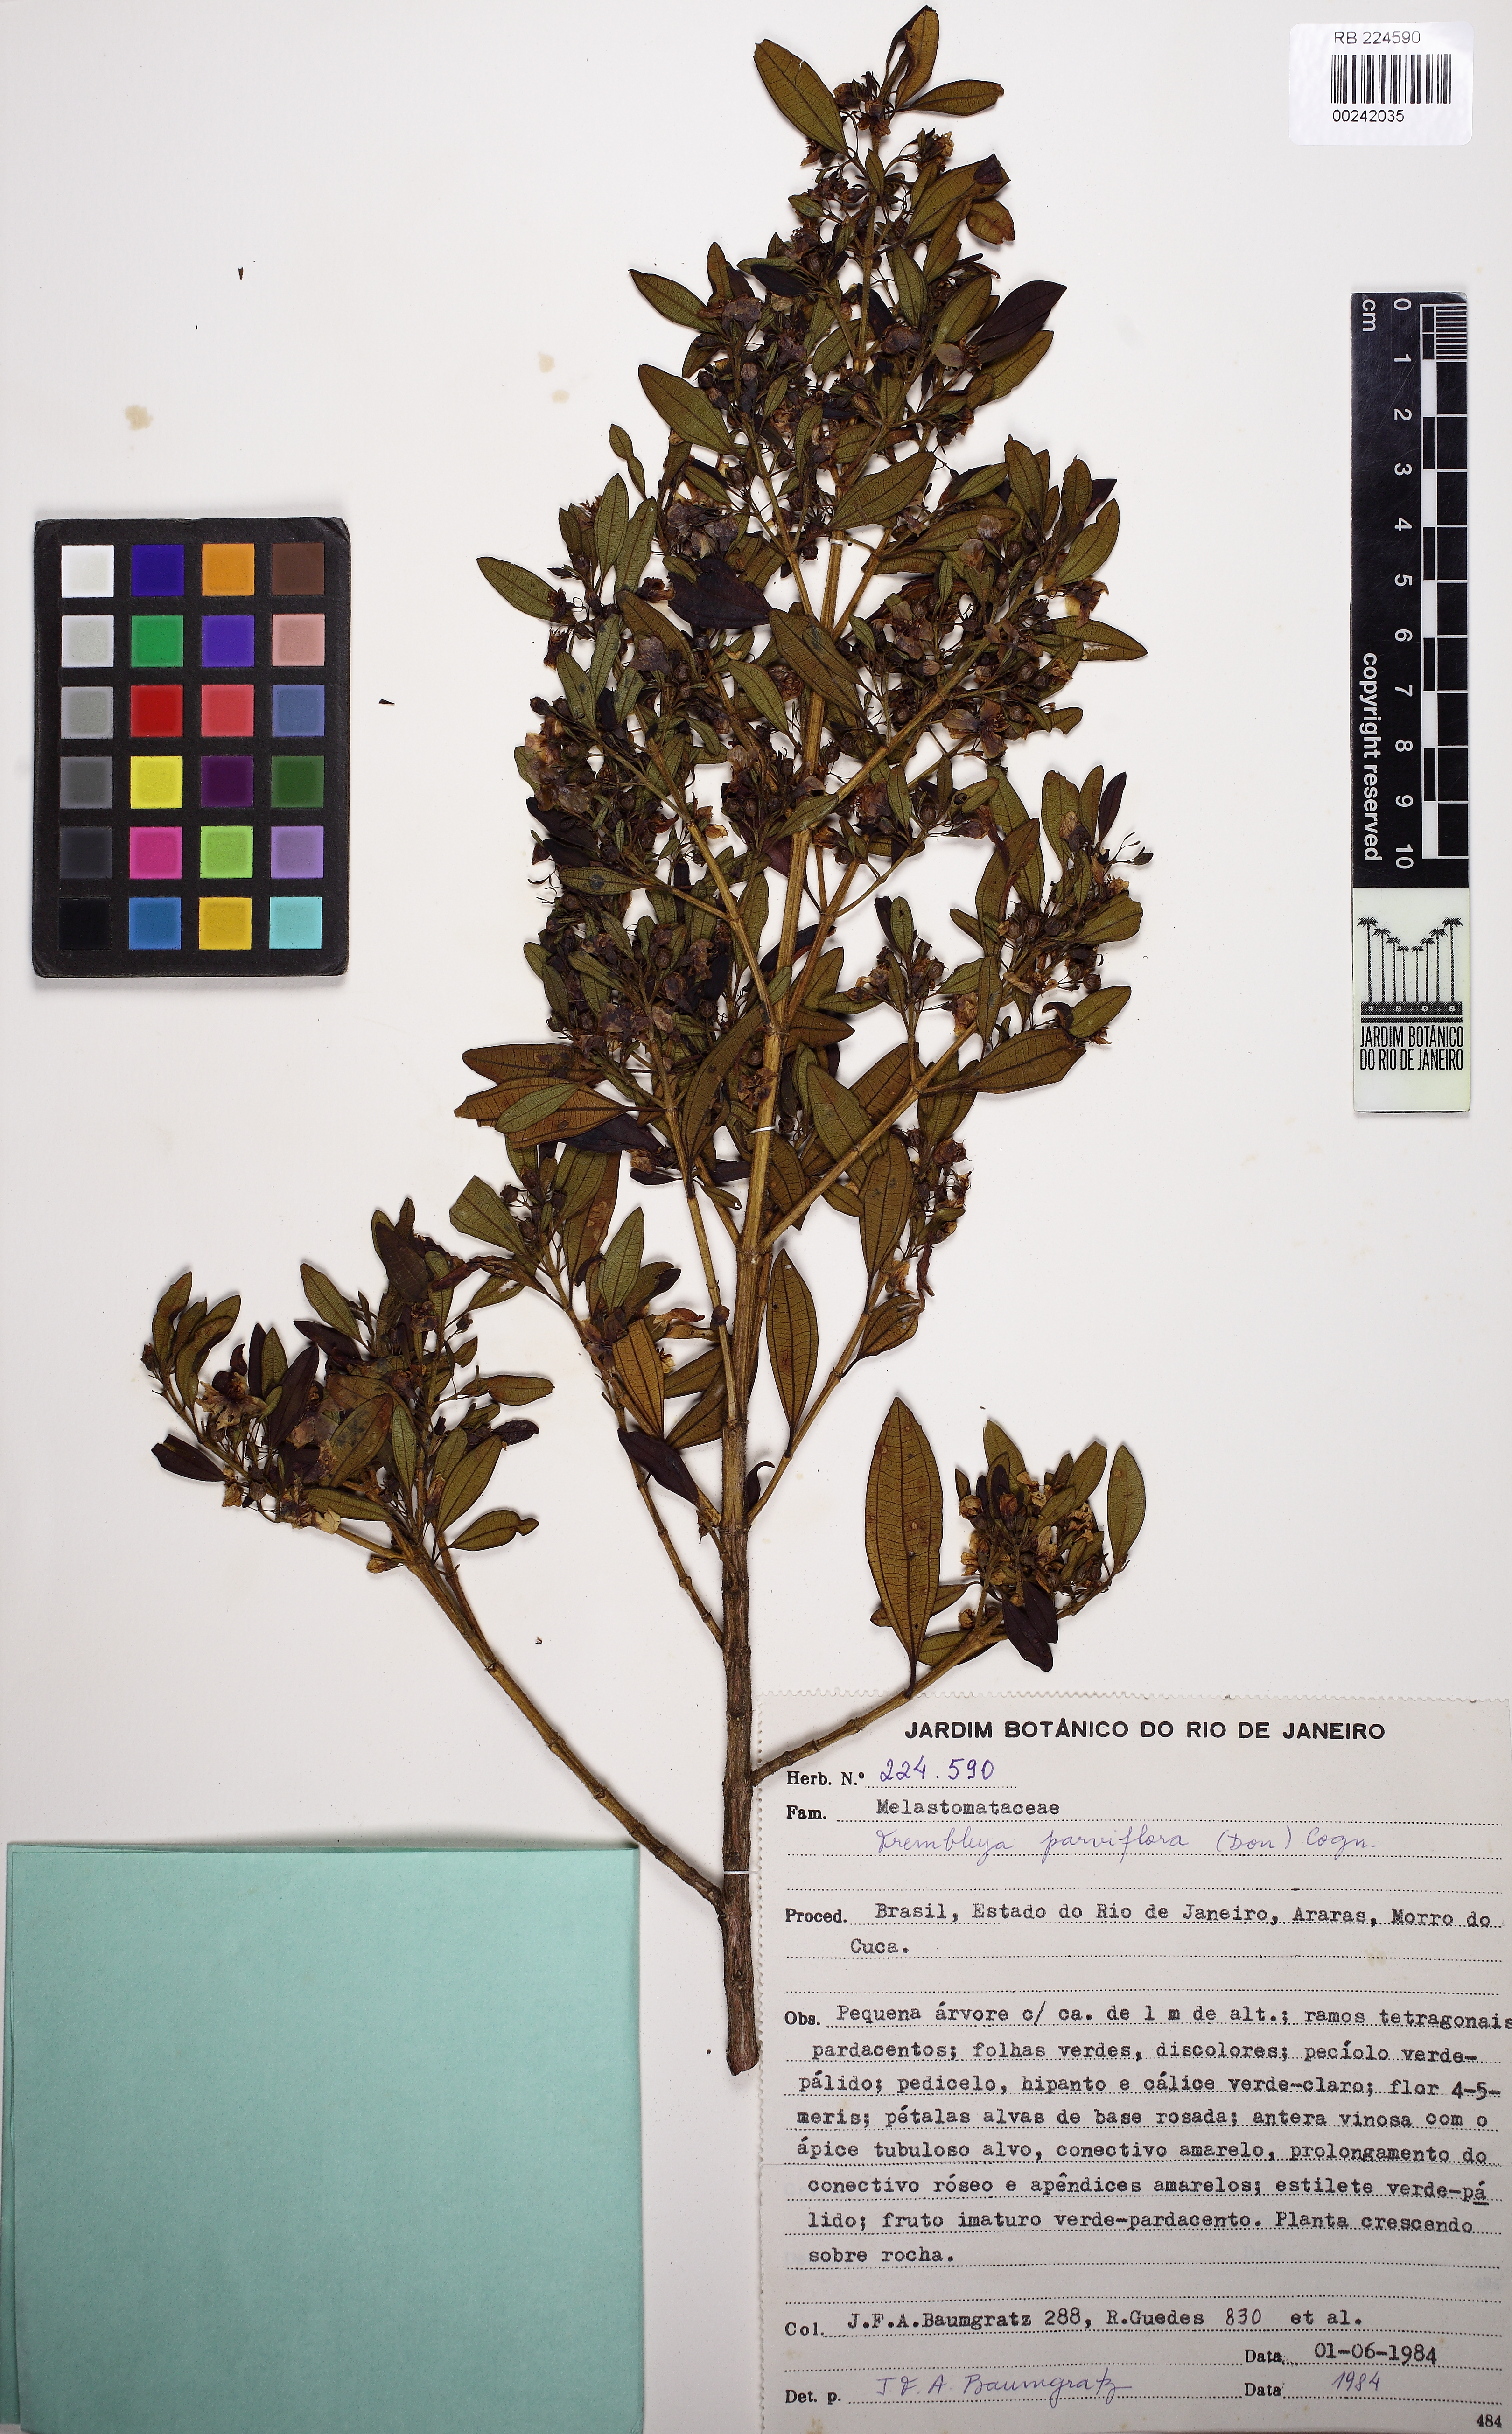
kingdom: Plantae
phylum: Tracheophyta
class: Magnoliopsida
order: Myrtales
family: Melastomataceae
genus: Microlicia
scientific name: Microlicia parviflora
